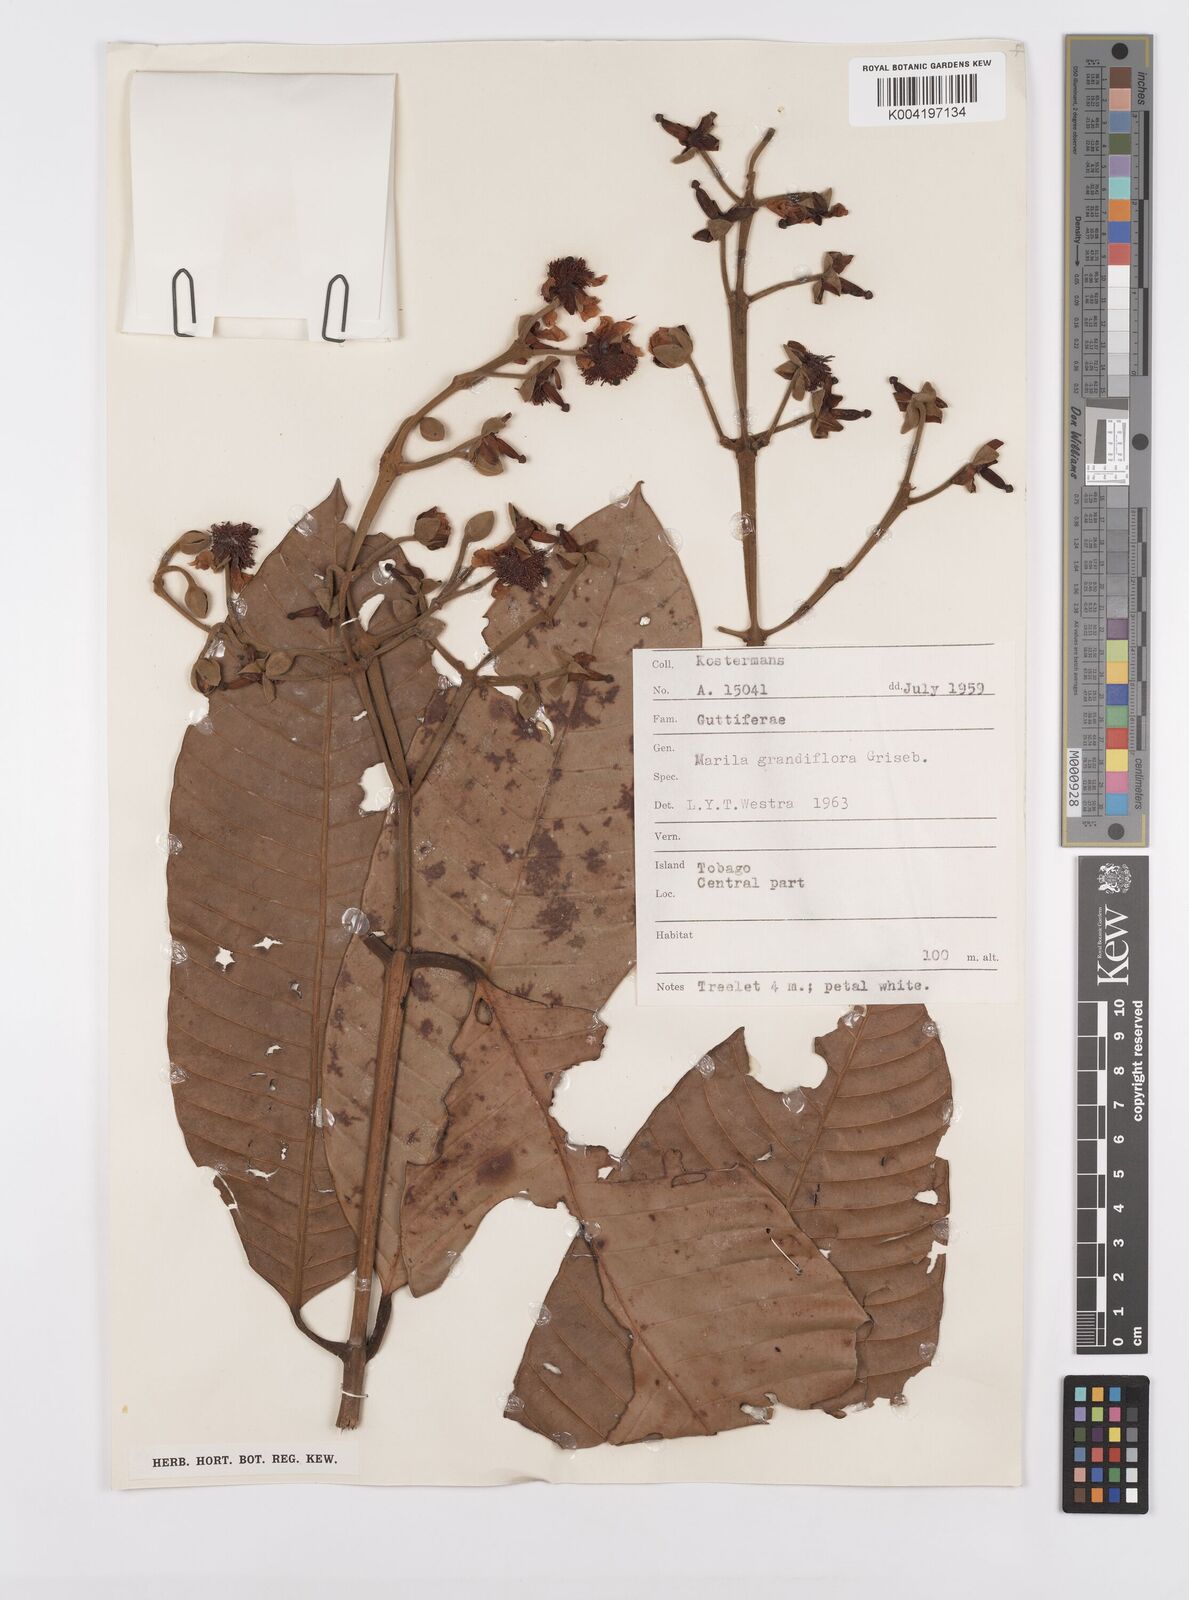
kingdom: Plantae
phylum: Tracheophyta
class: Magnoliopsida
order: Malpighiales
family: Calophyllaceae
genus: Marila
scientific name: Marila grandiflora
